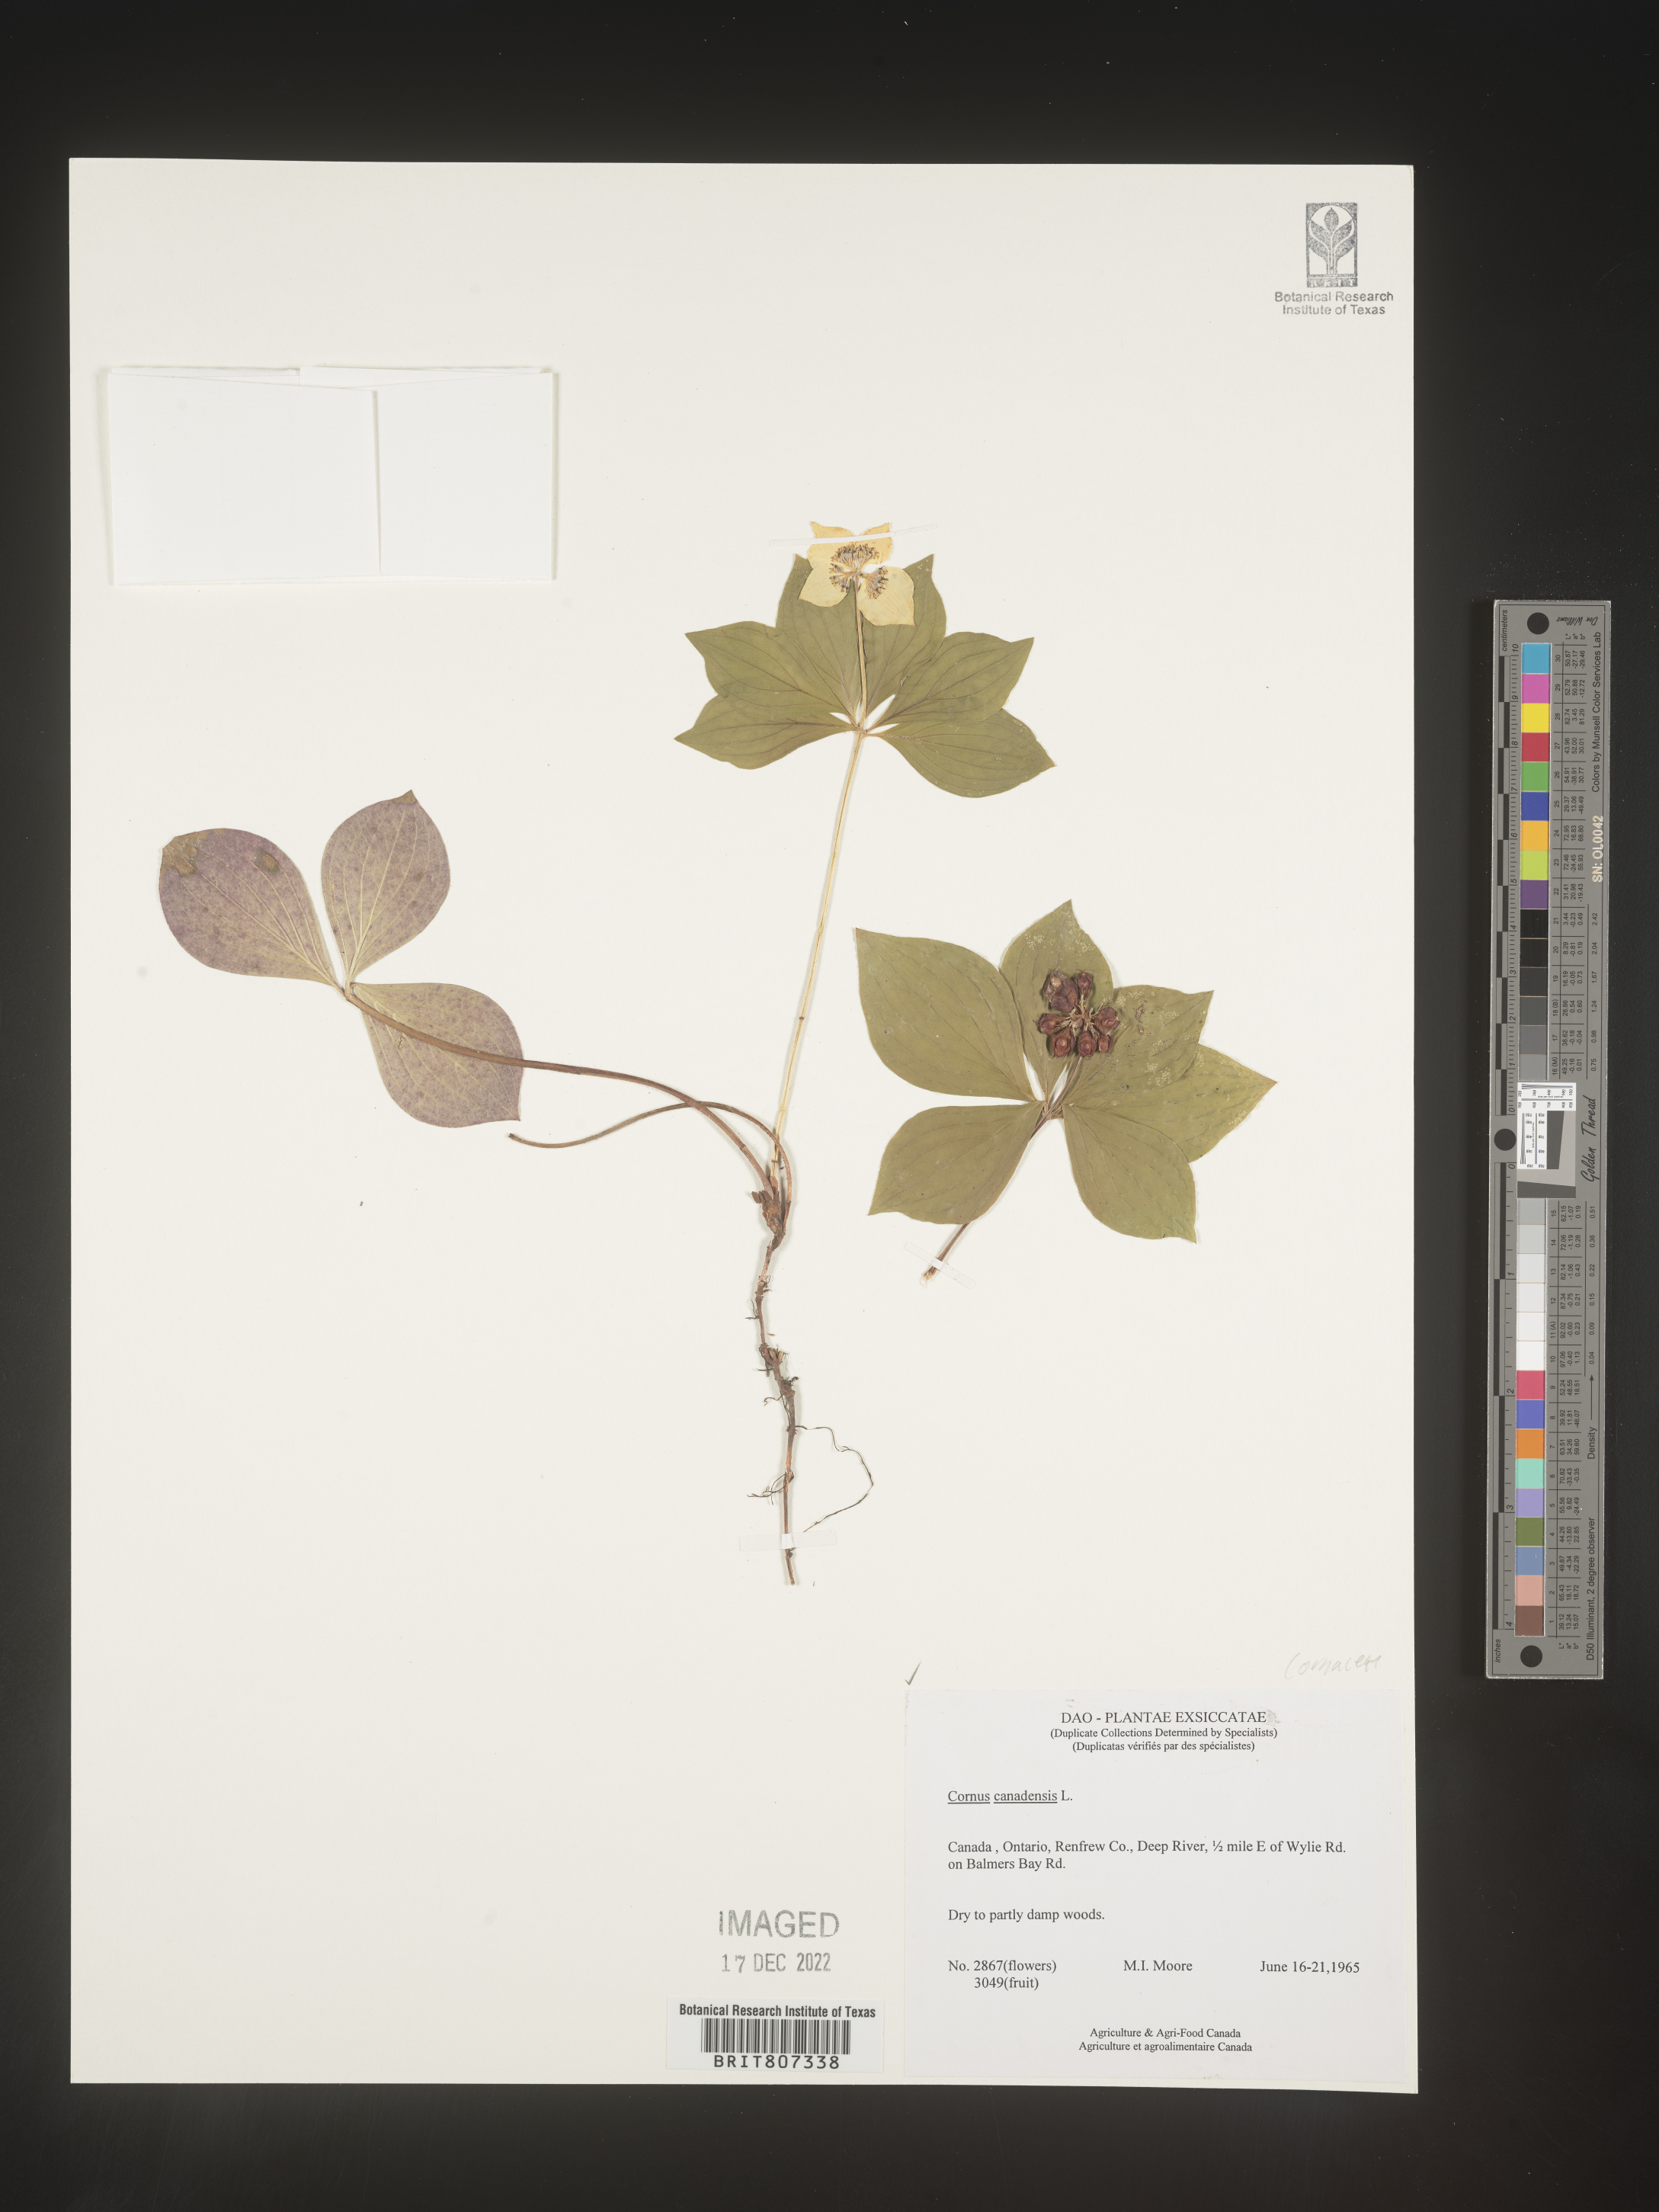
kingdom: Plantae
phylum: Tracheophyta
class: Magnoliopsida
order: Cornales
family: Cornaceae
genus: Cornus
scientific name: Cornus canadensis
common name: Creeping dogwood
